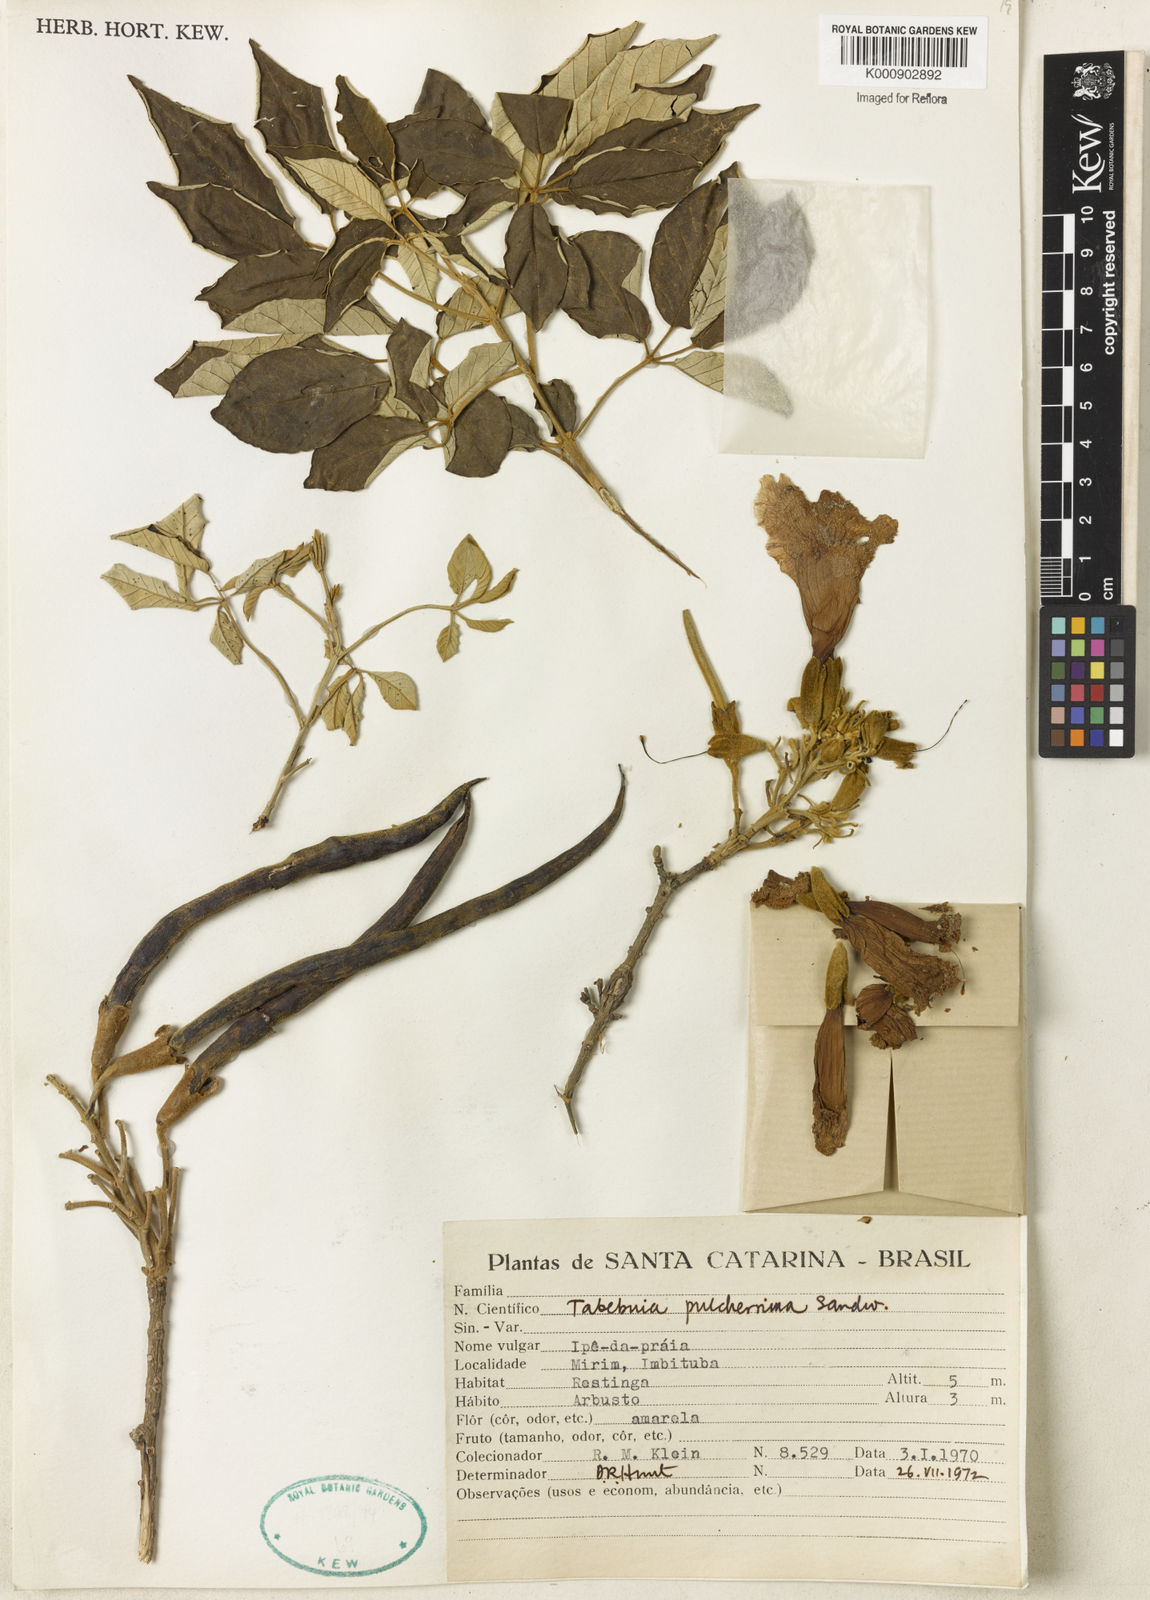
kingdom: Plantae
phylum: Tracheophyta
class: Magnoliopsida
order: Lamiales
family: Bignoniaceae
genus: Handroanthus
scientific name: Handroanthus pulcherrimus
